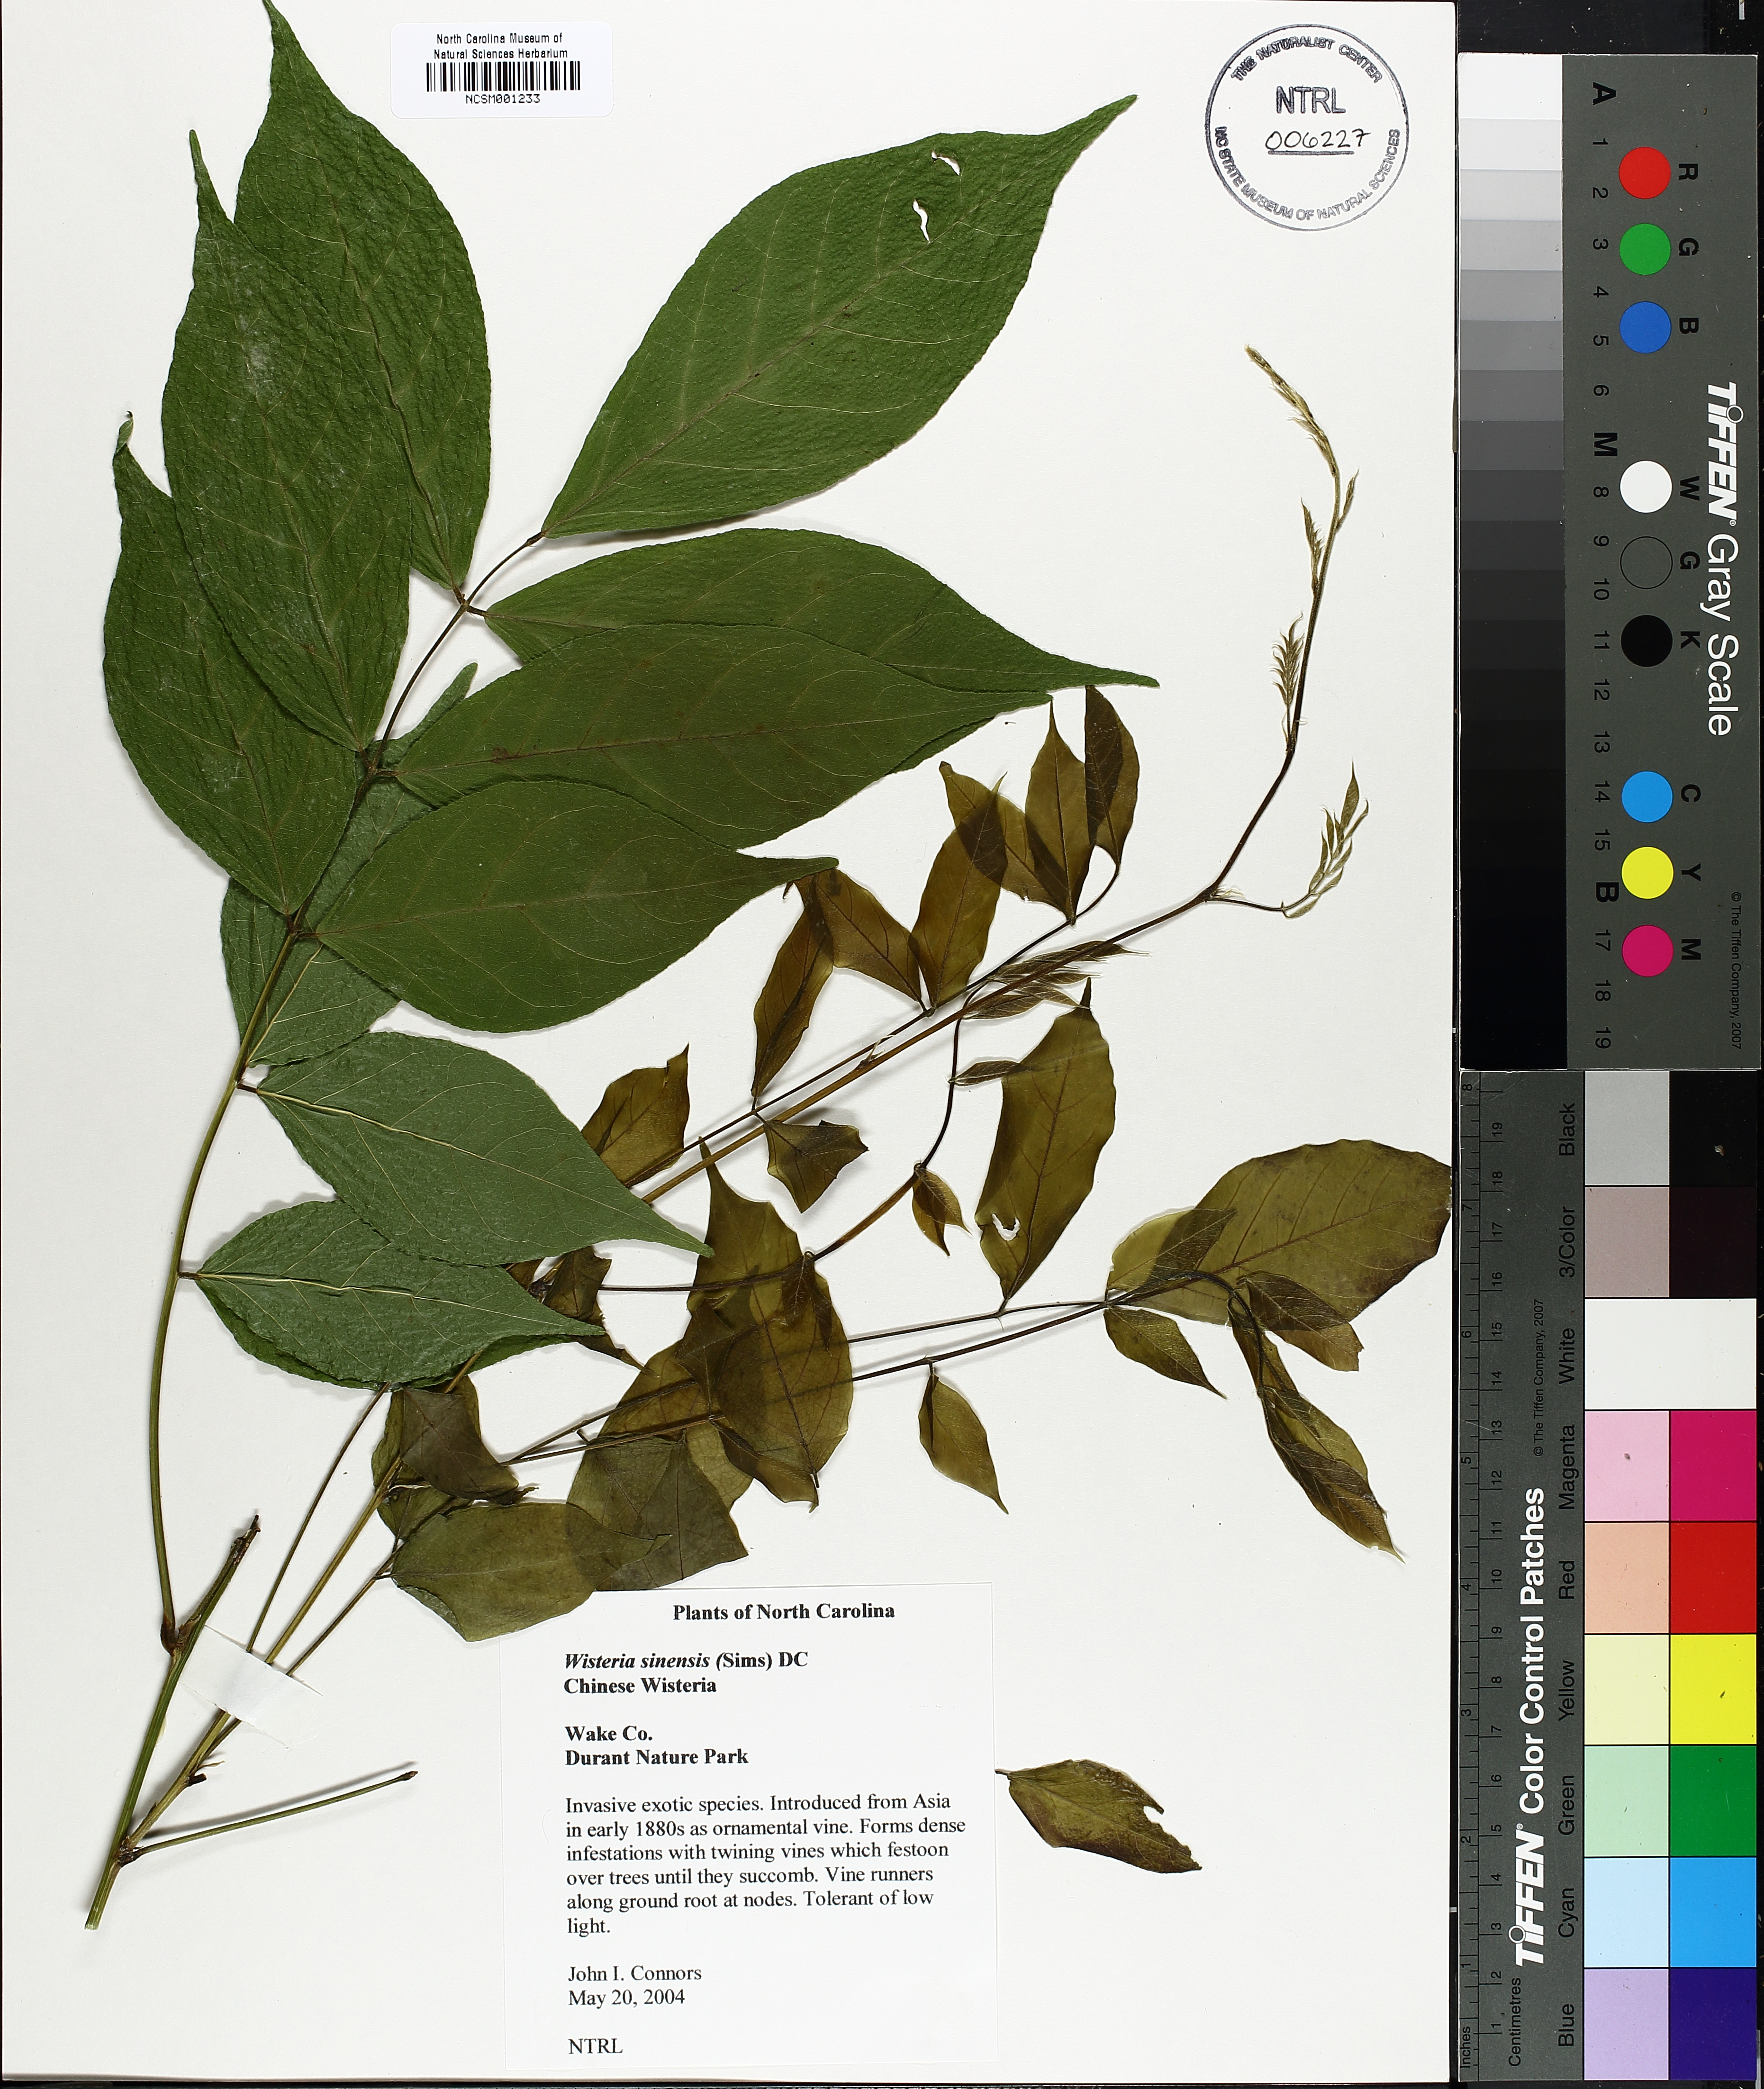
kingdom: Plantae
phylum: Tracheophyta
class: Magnoliopsida
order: Fabales
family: Fabaceae
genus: Wisteria
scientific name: Wisteria sinensis
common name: Chinese wisteria
